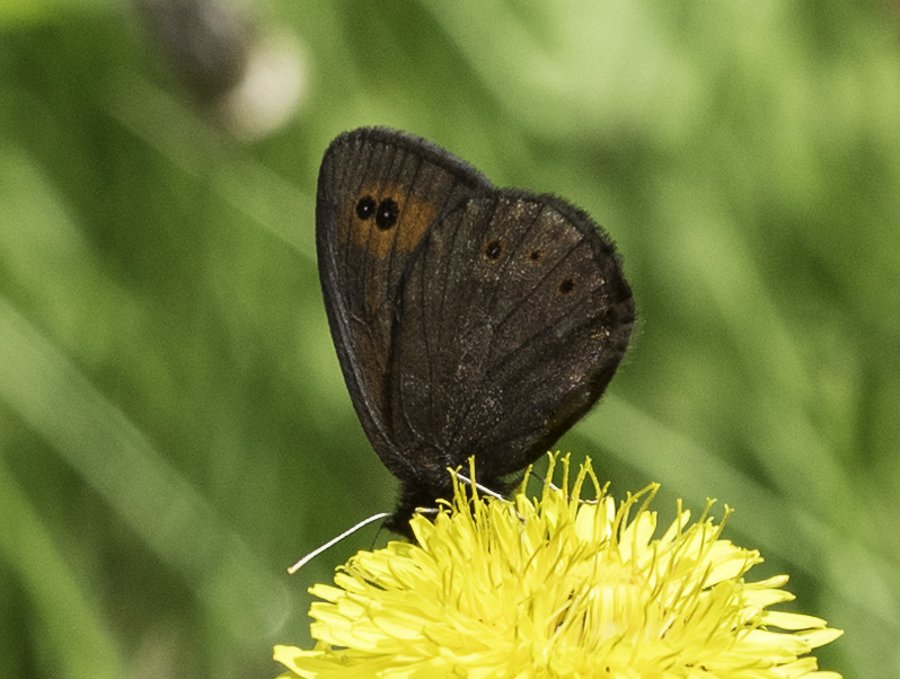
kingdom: Animalia
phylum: Arthropoda
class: Insecta
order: Lepidoptera
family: Nymphalidae
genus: Erebia
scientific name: Erebia epipsodea
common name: Common Alpine
